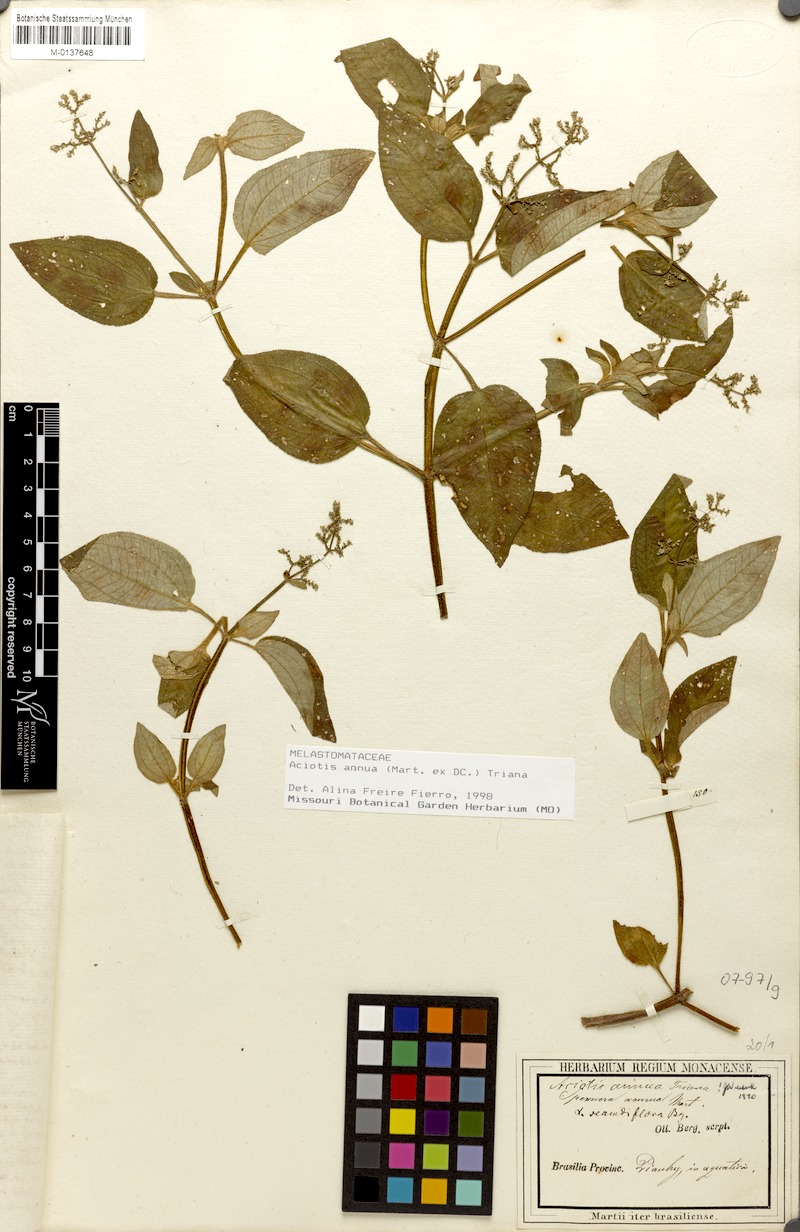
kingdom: Plantae
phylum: Tracheophyta
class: Magnoliopsida
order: Myrtales
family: Melastomataceae
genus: Aciotis
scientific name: Aciotis annua
